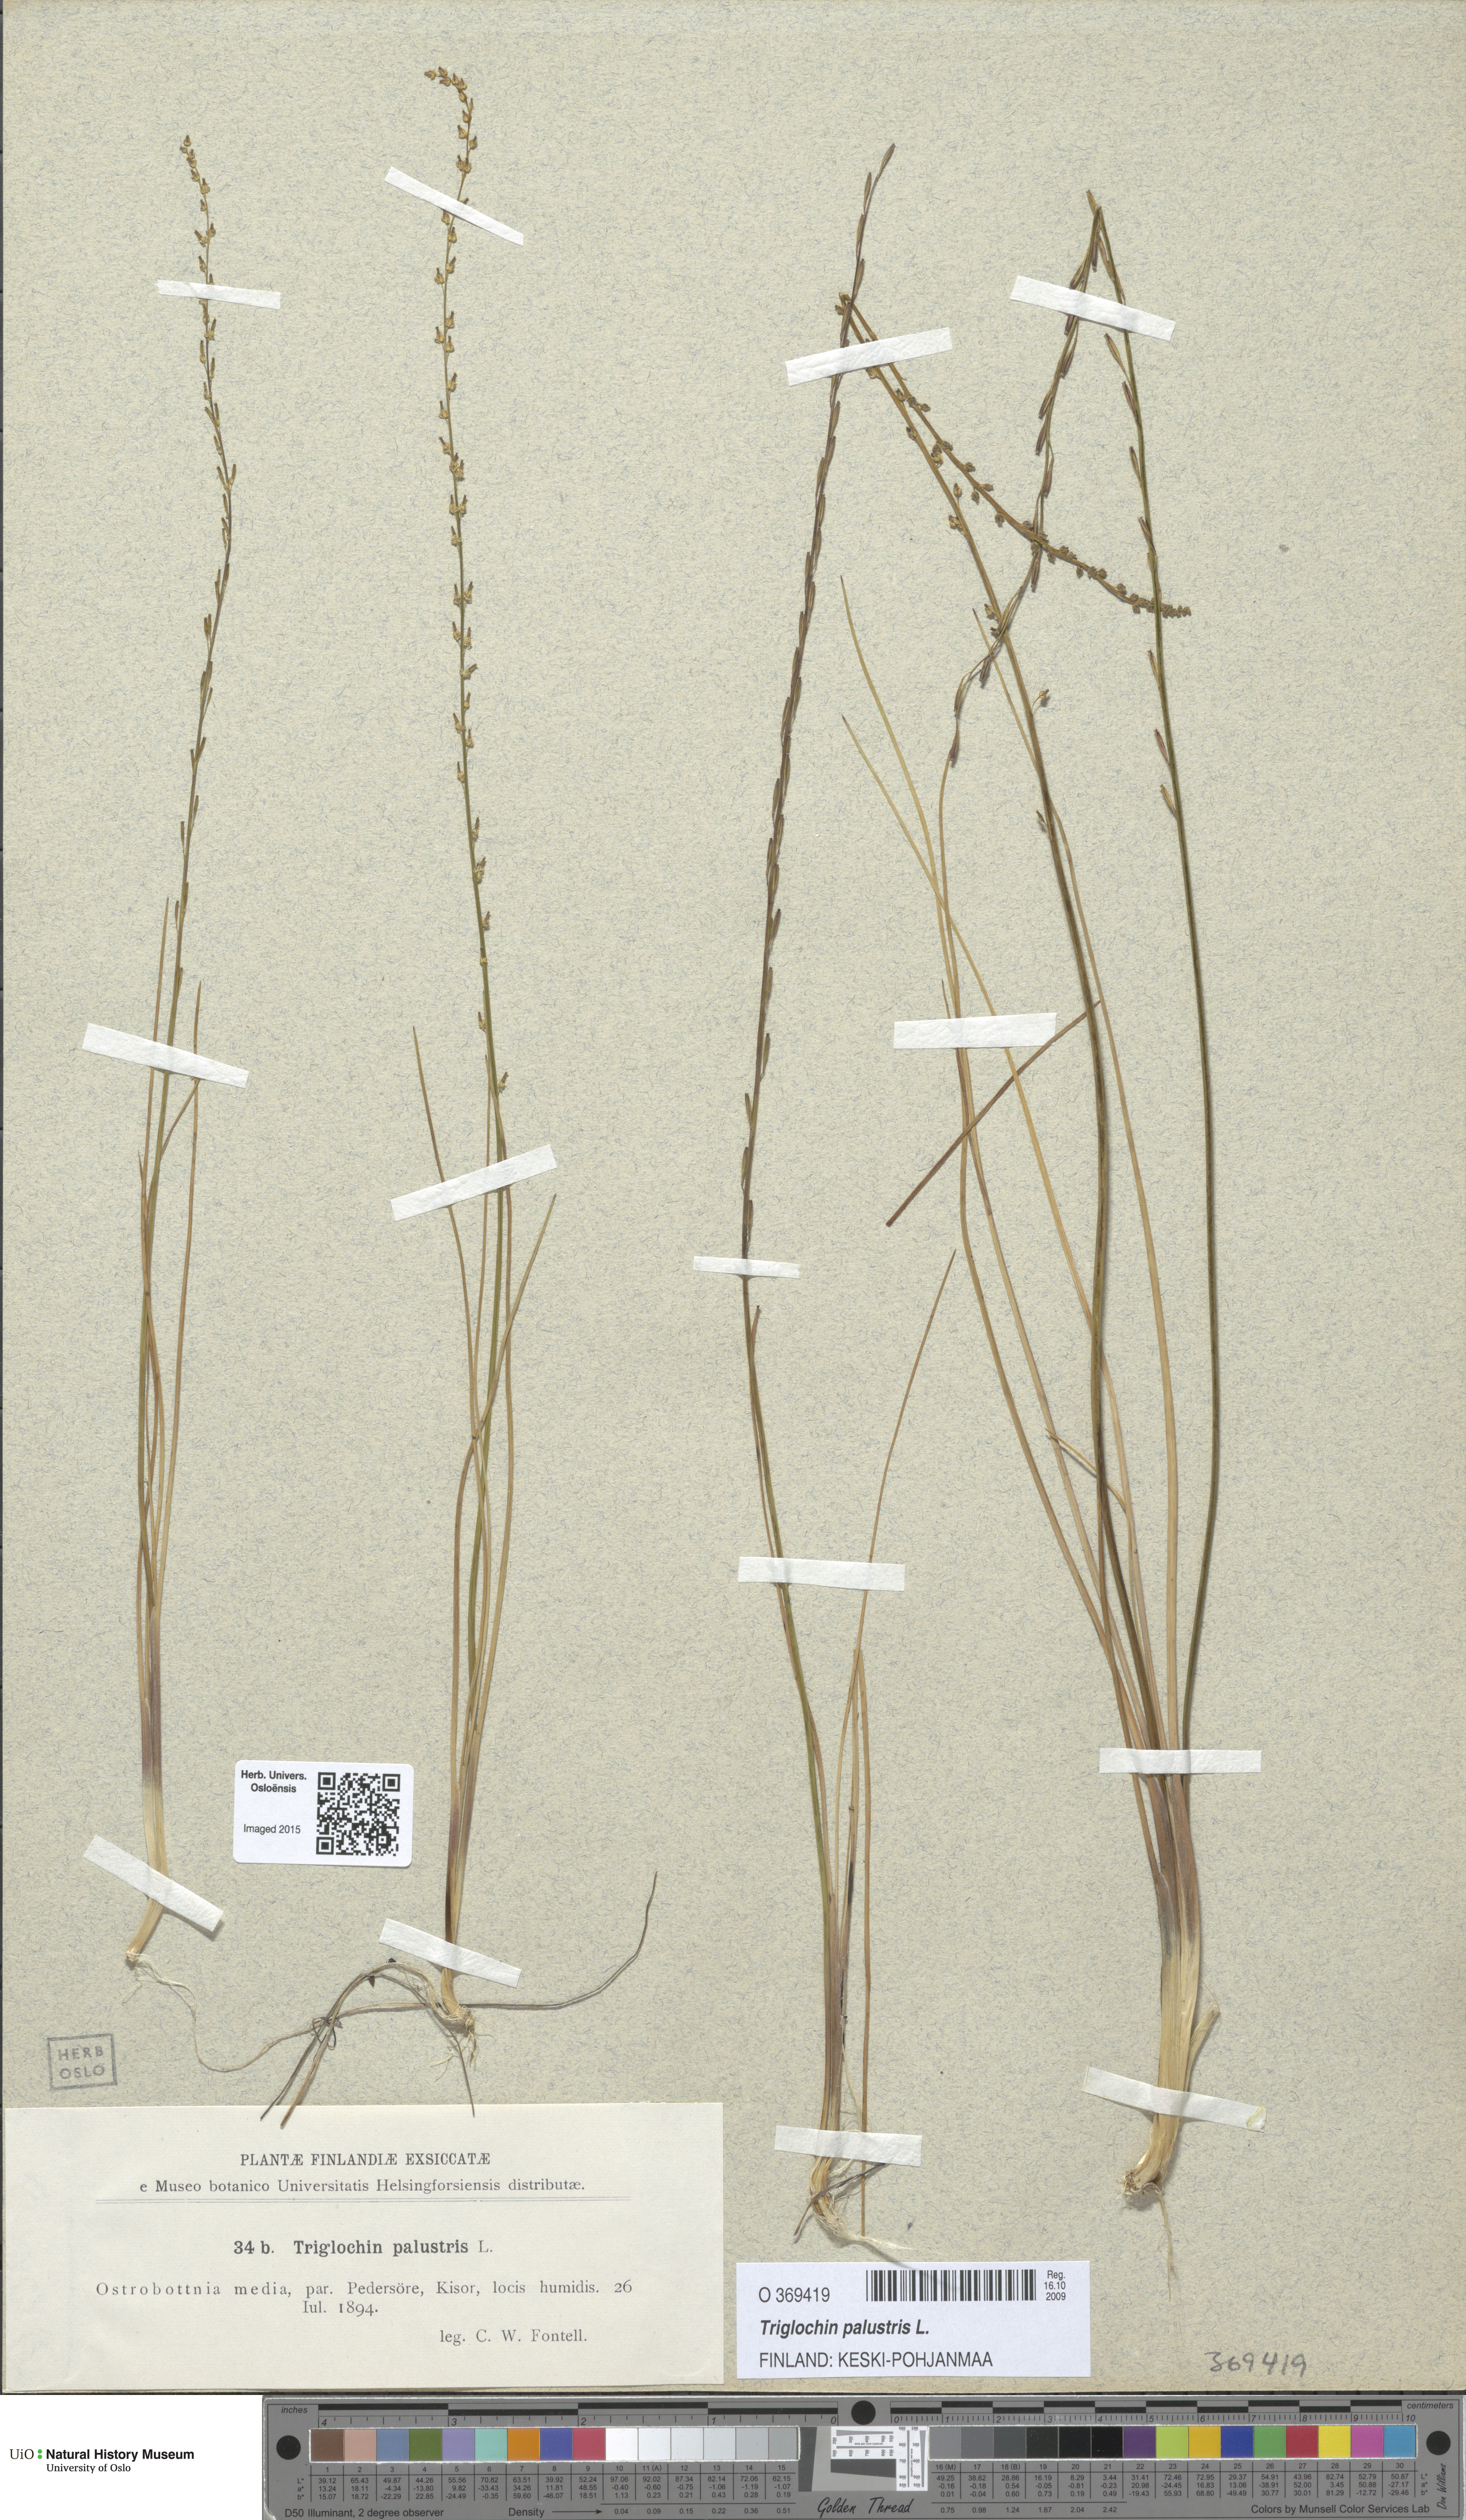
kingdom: Plantae
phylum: Tracheophyta
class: Liliopsida
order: Alismatales
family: Juncaginaceae
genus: Triglochin
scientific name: Triglochin palustris
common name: Marsh arrowgrass
